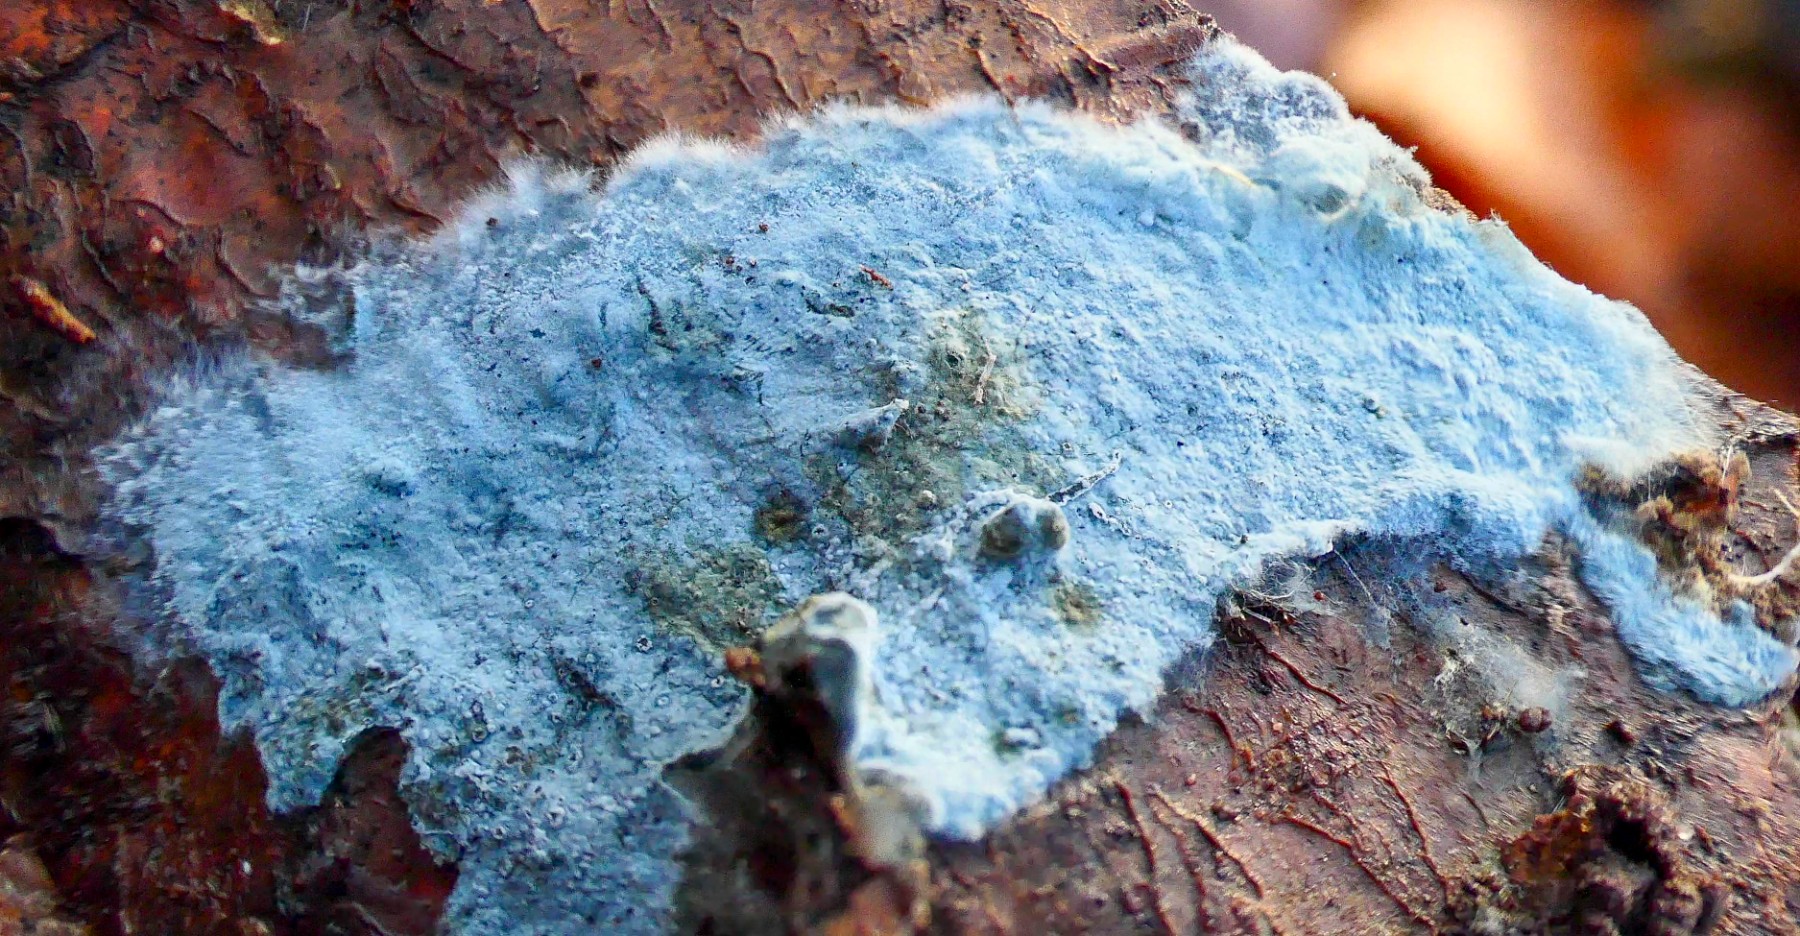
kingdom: Fungi
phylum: Basidiomycota
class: Agaricomycetes
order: Atheliales
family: Atheliaceae
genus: Byssocorticium
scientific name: Byssocorticium atrovirens
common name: blå førnehinde
